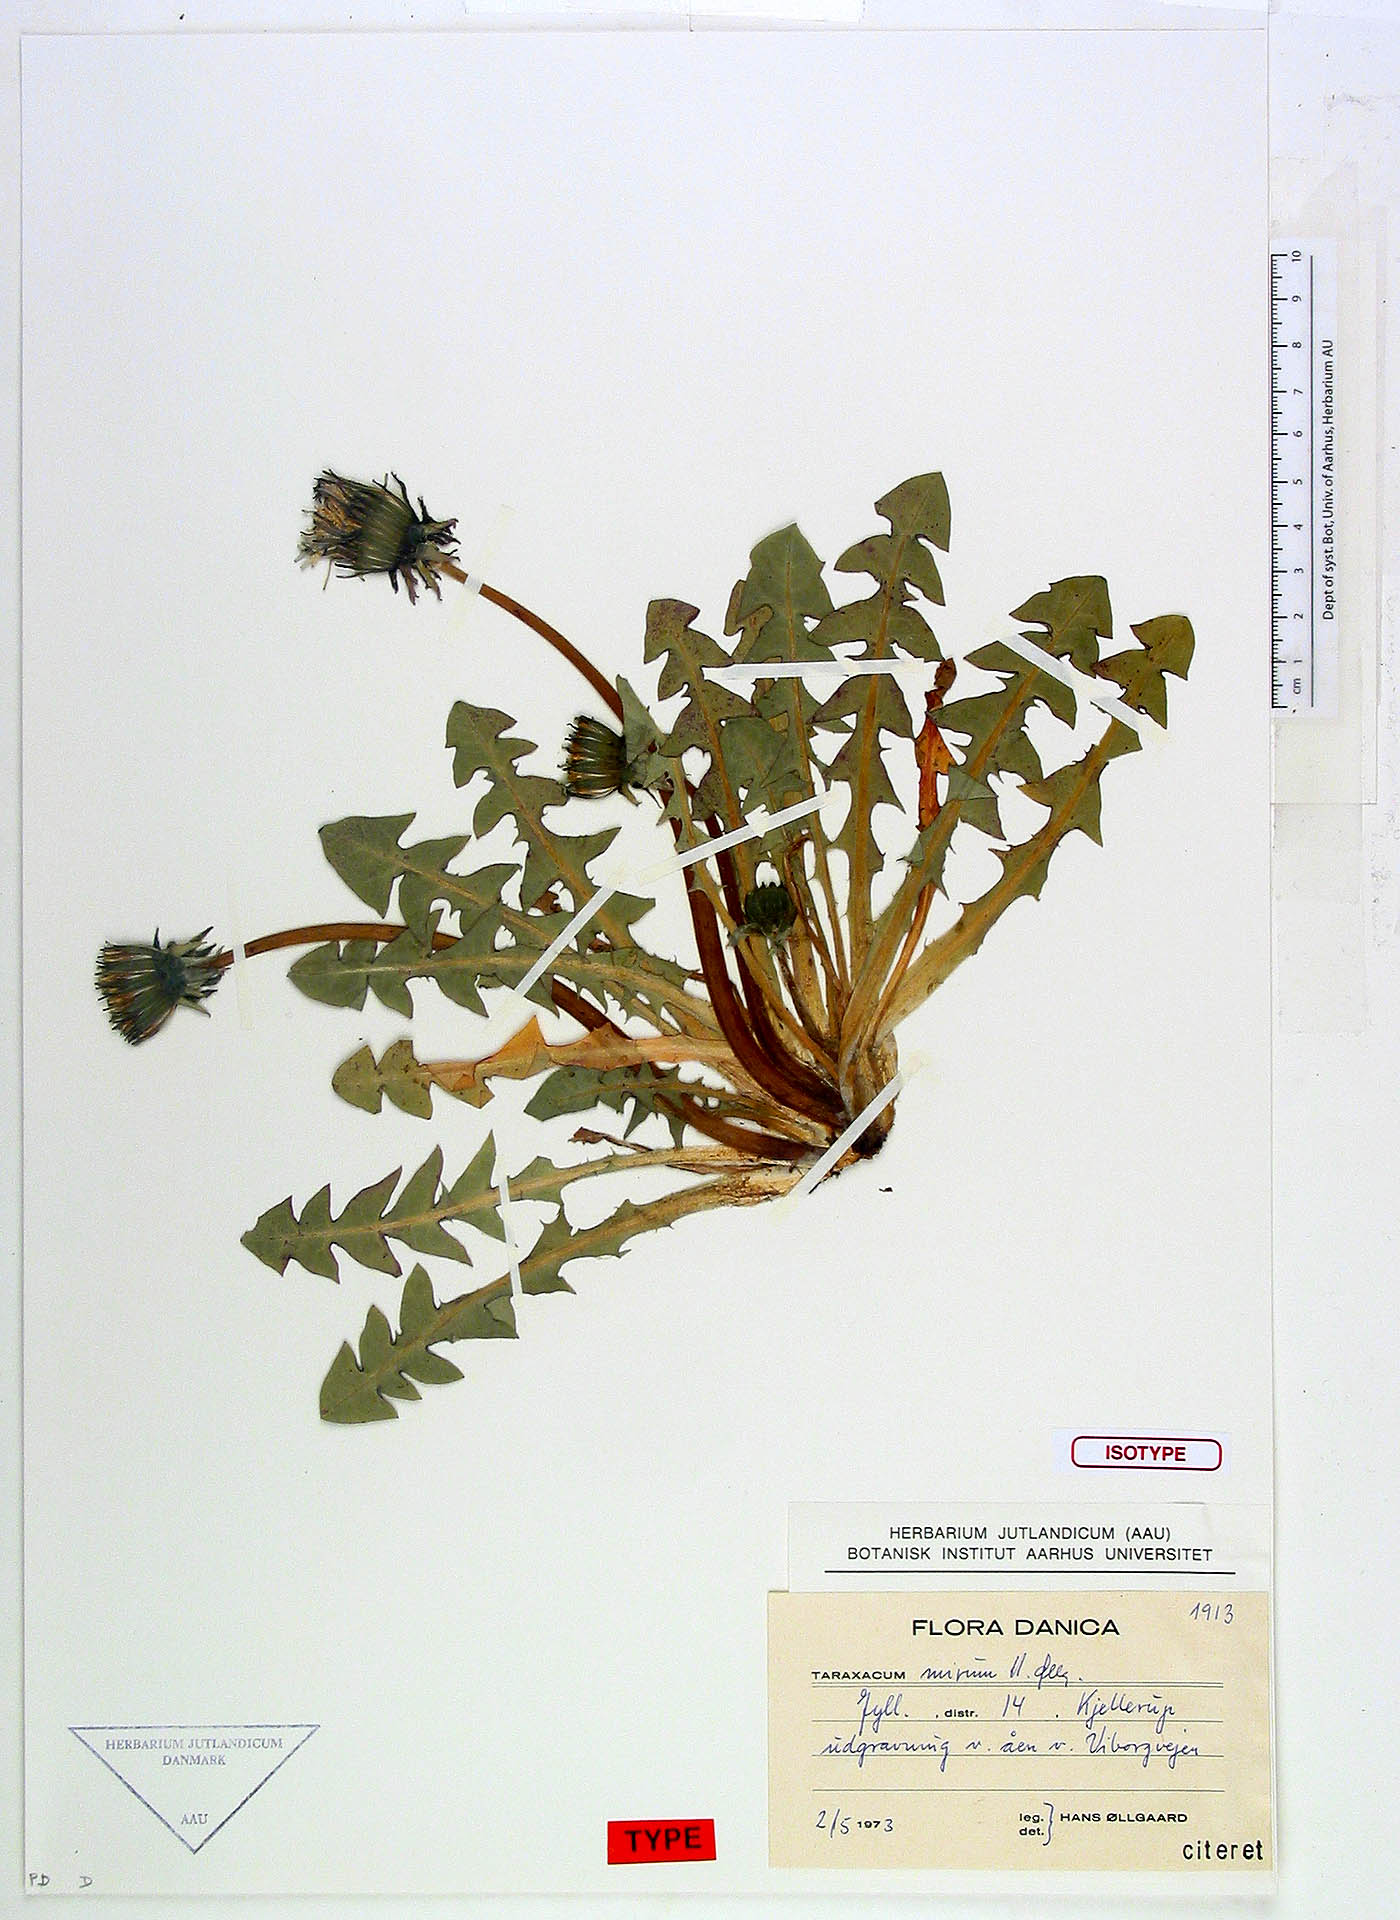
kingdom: Plantae
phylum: Tracheophyta
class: Magnoliopsida
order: Asterales
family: Asteraceae
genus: Taraxacum
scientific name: Taraxacum subalatum
